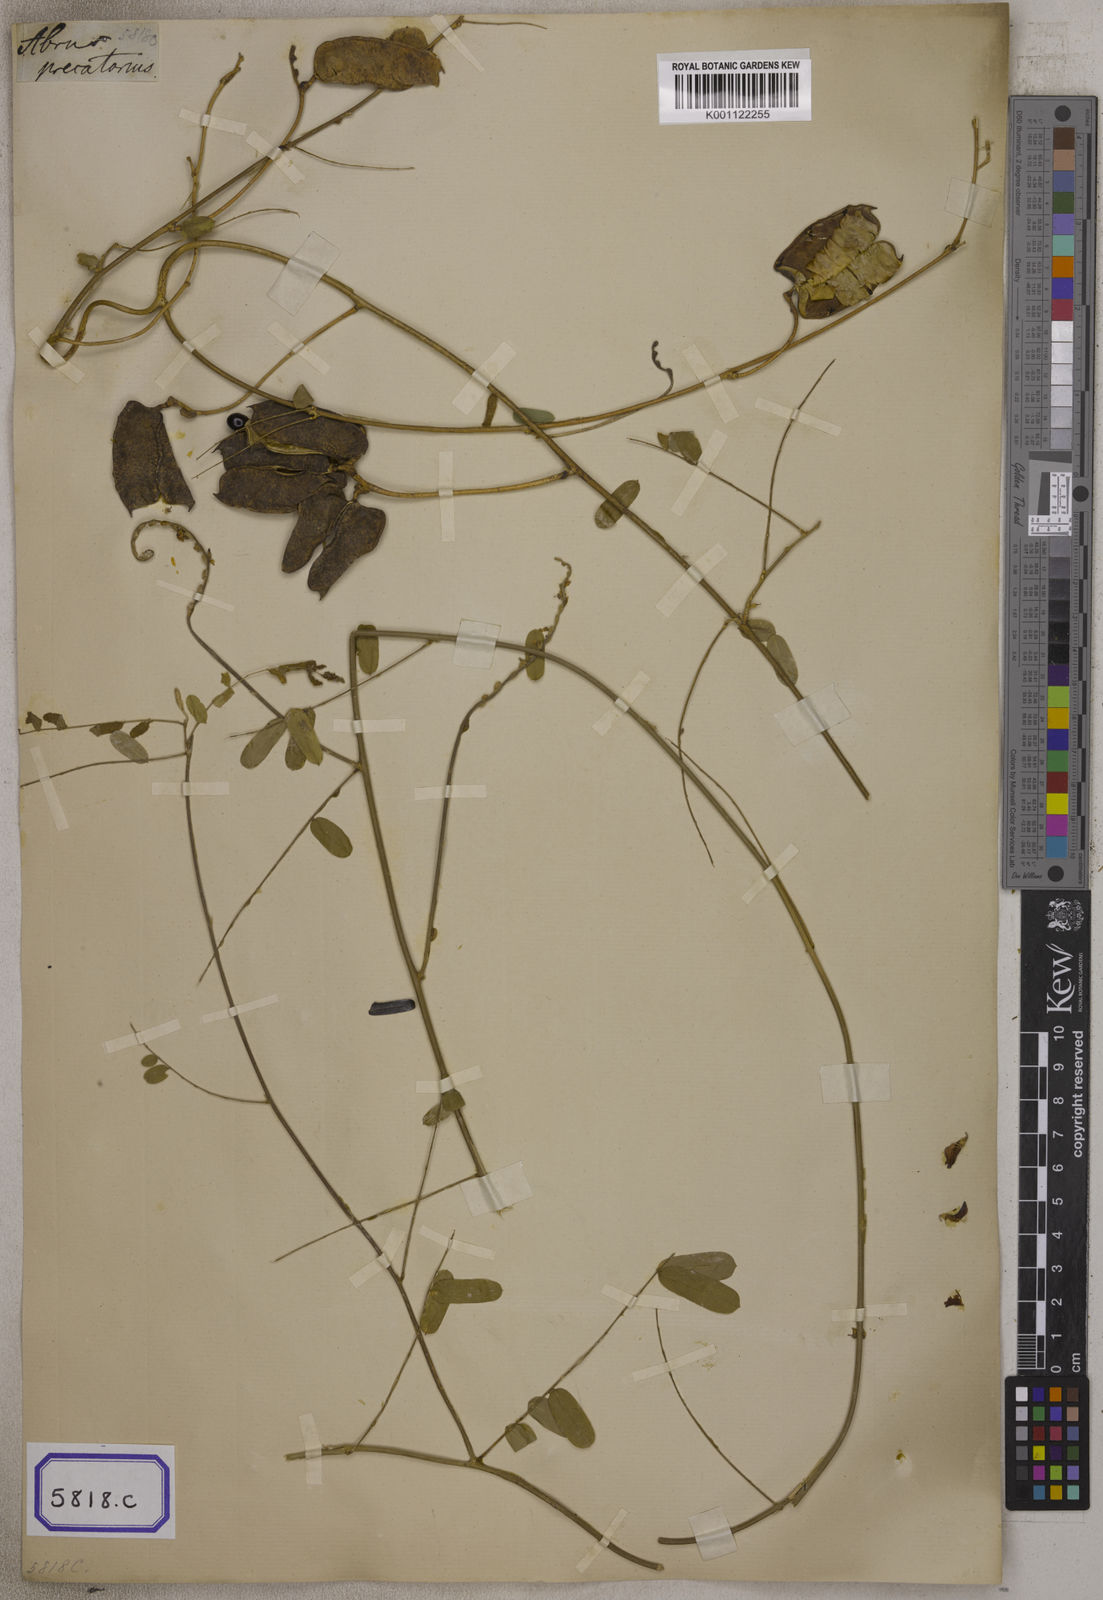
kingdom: Plantae
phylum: Tracheophyta
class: Magnoliopsida
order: Fabales
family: Fabaceae
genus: Abrus
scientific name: Abrus precatorius
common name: Rosarypea
